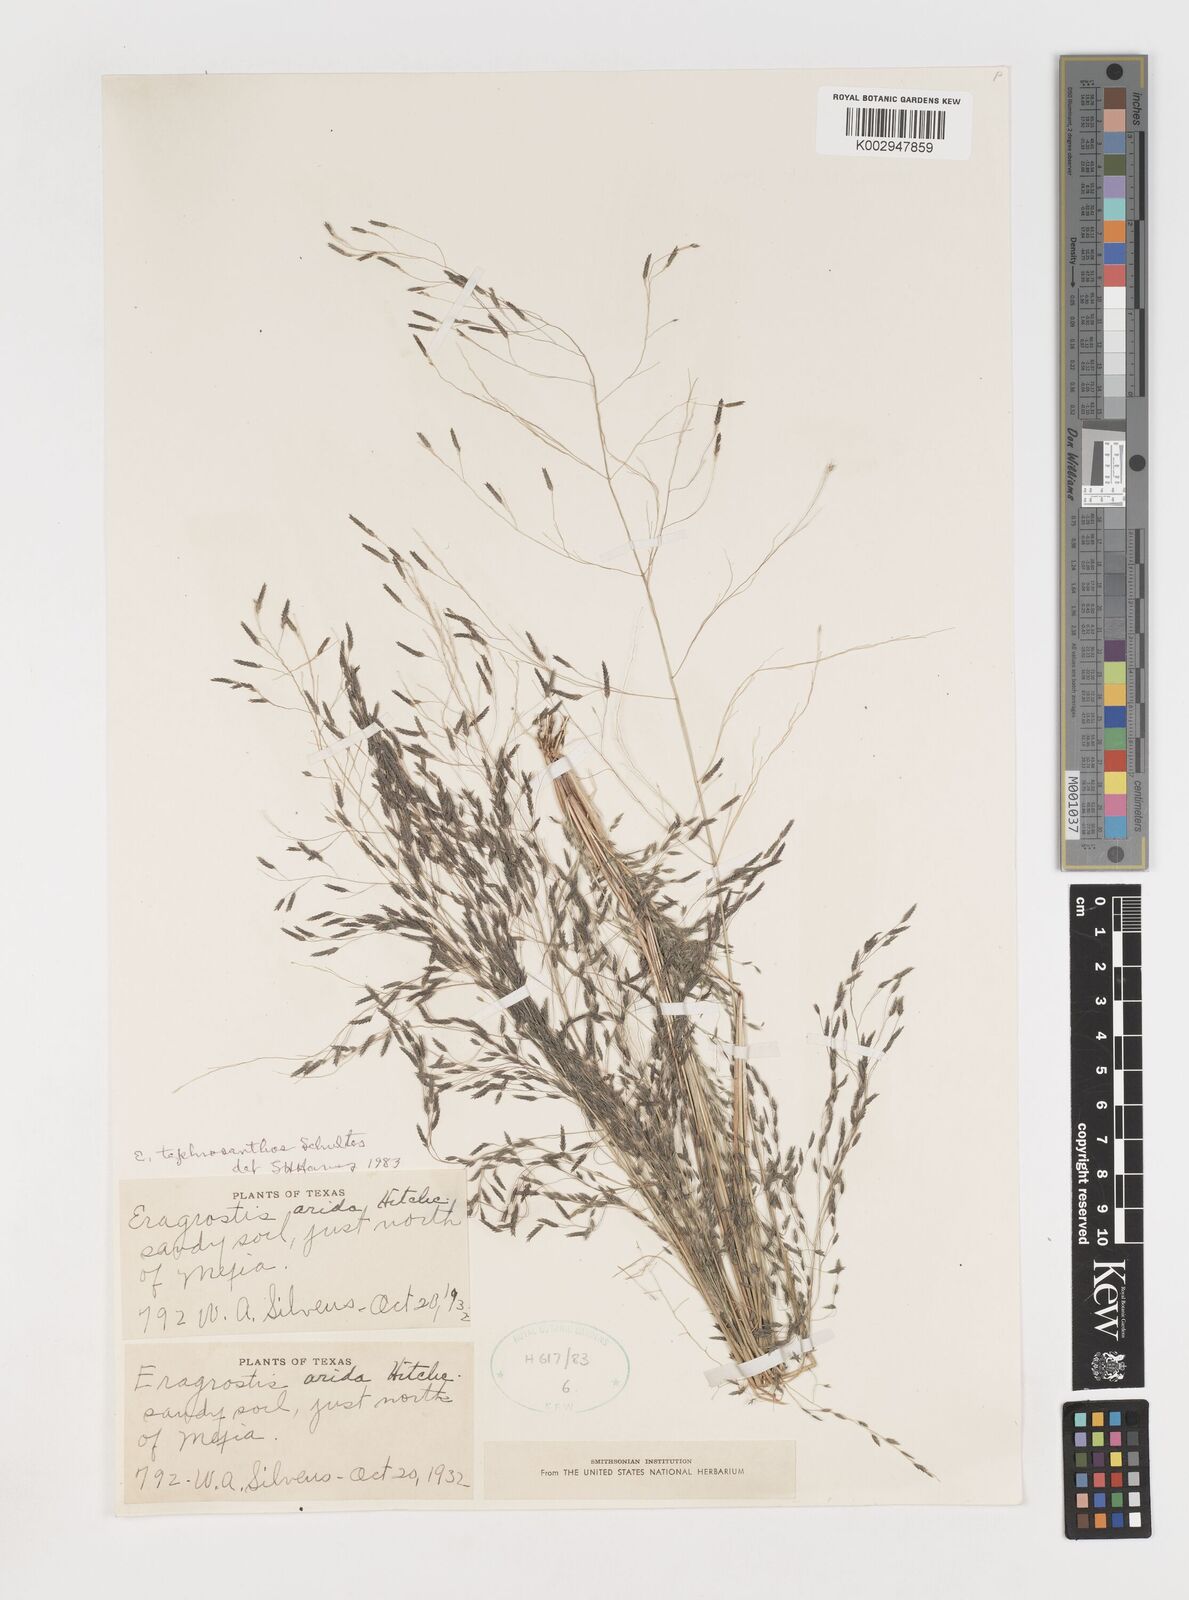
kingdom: Plantae
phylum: Tracheophyta
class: Liliopsida
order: Poales
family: Poaceae
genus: Eragrostis
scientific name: Eragrostis pectinacea
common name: Tufted lovegrass
